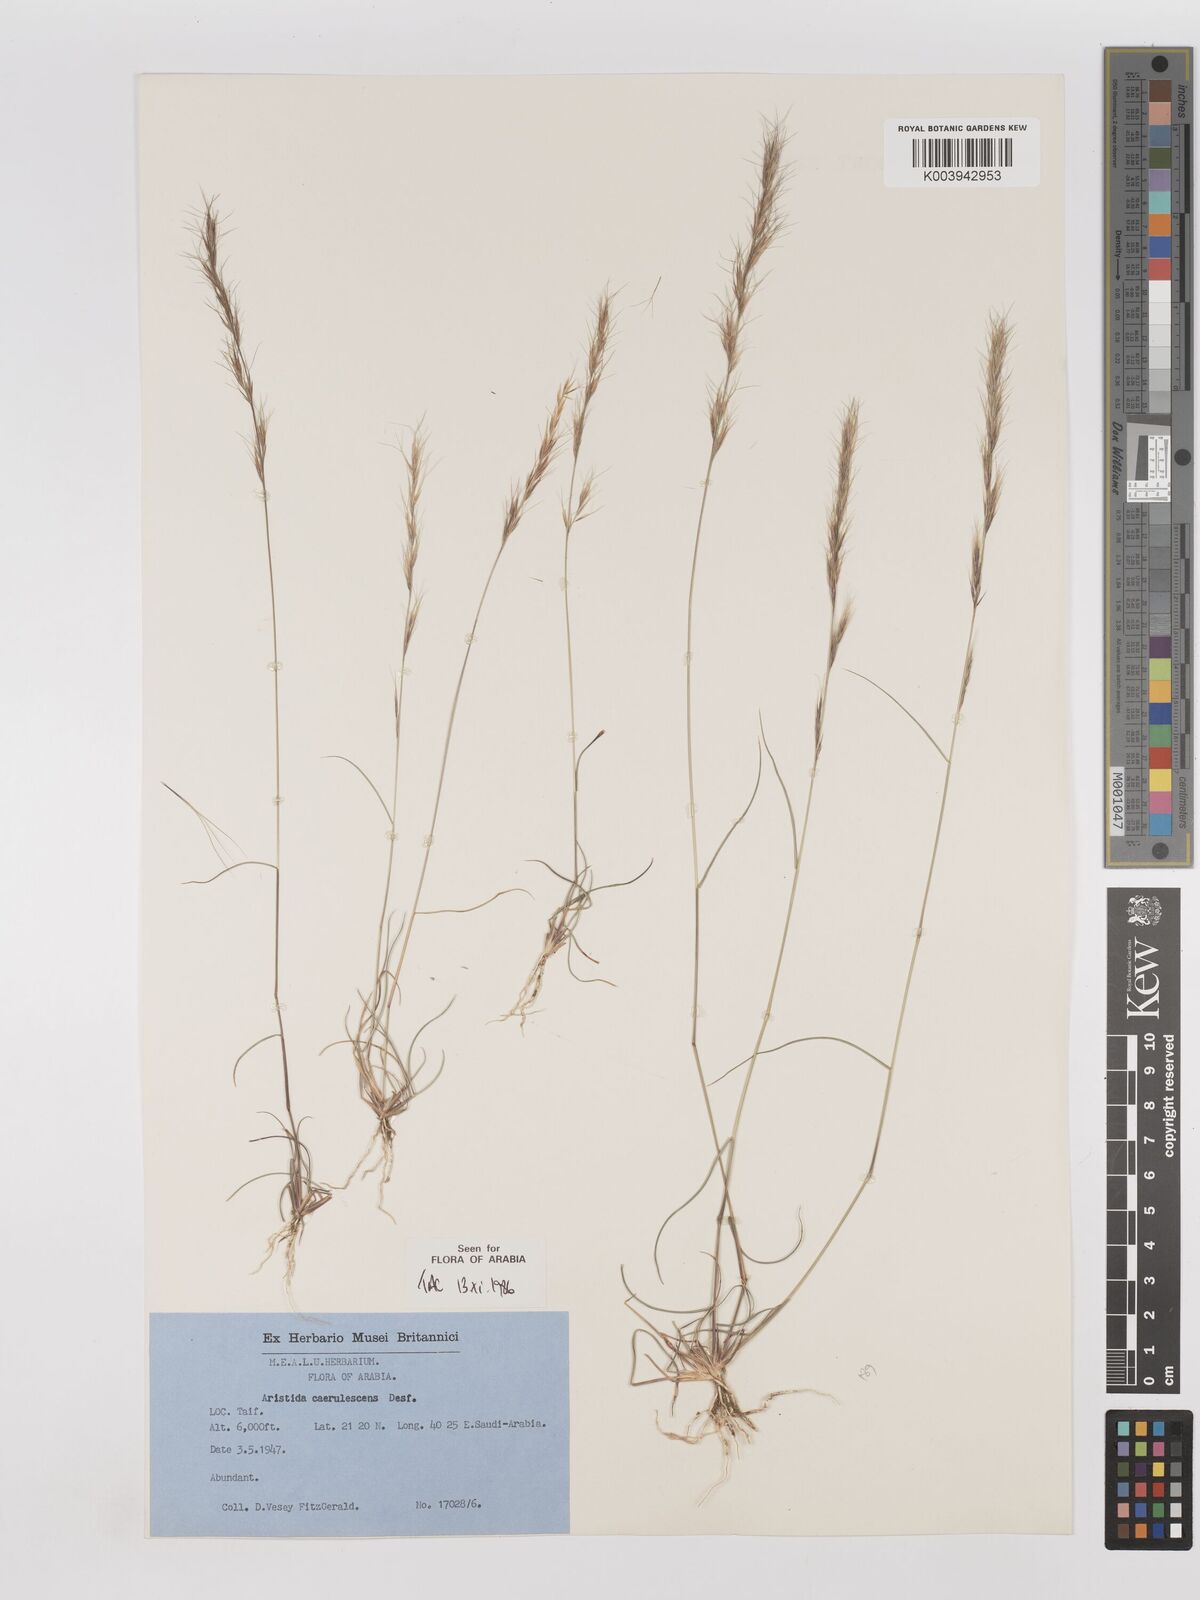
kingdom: Plantae
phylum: Tracheophyta
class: Liliopsida
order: Poales
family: Poaceae
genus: Aristida
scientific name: Aristida adscensionis
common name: Sixweeks threeawn
